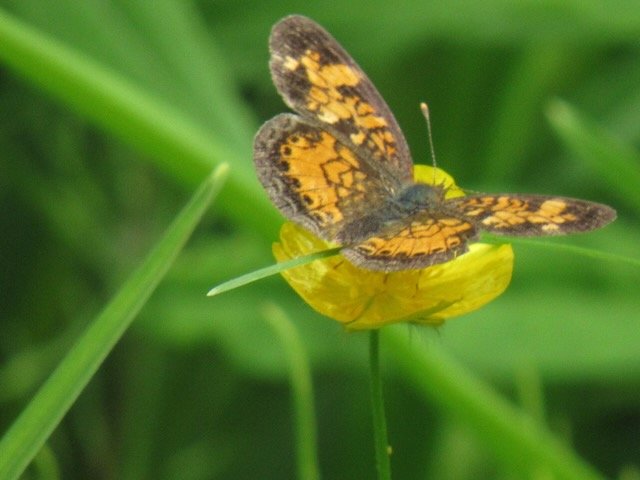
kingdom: Animalia
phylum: Arthropoda
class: Insecta
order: Lepidoptera
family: Nymphalidae
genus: Phyciodes
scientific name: Phyciodes tharos
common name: Pearl Crescent
